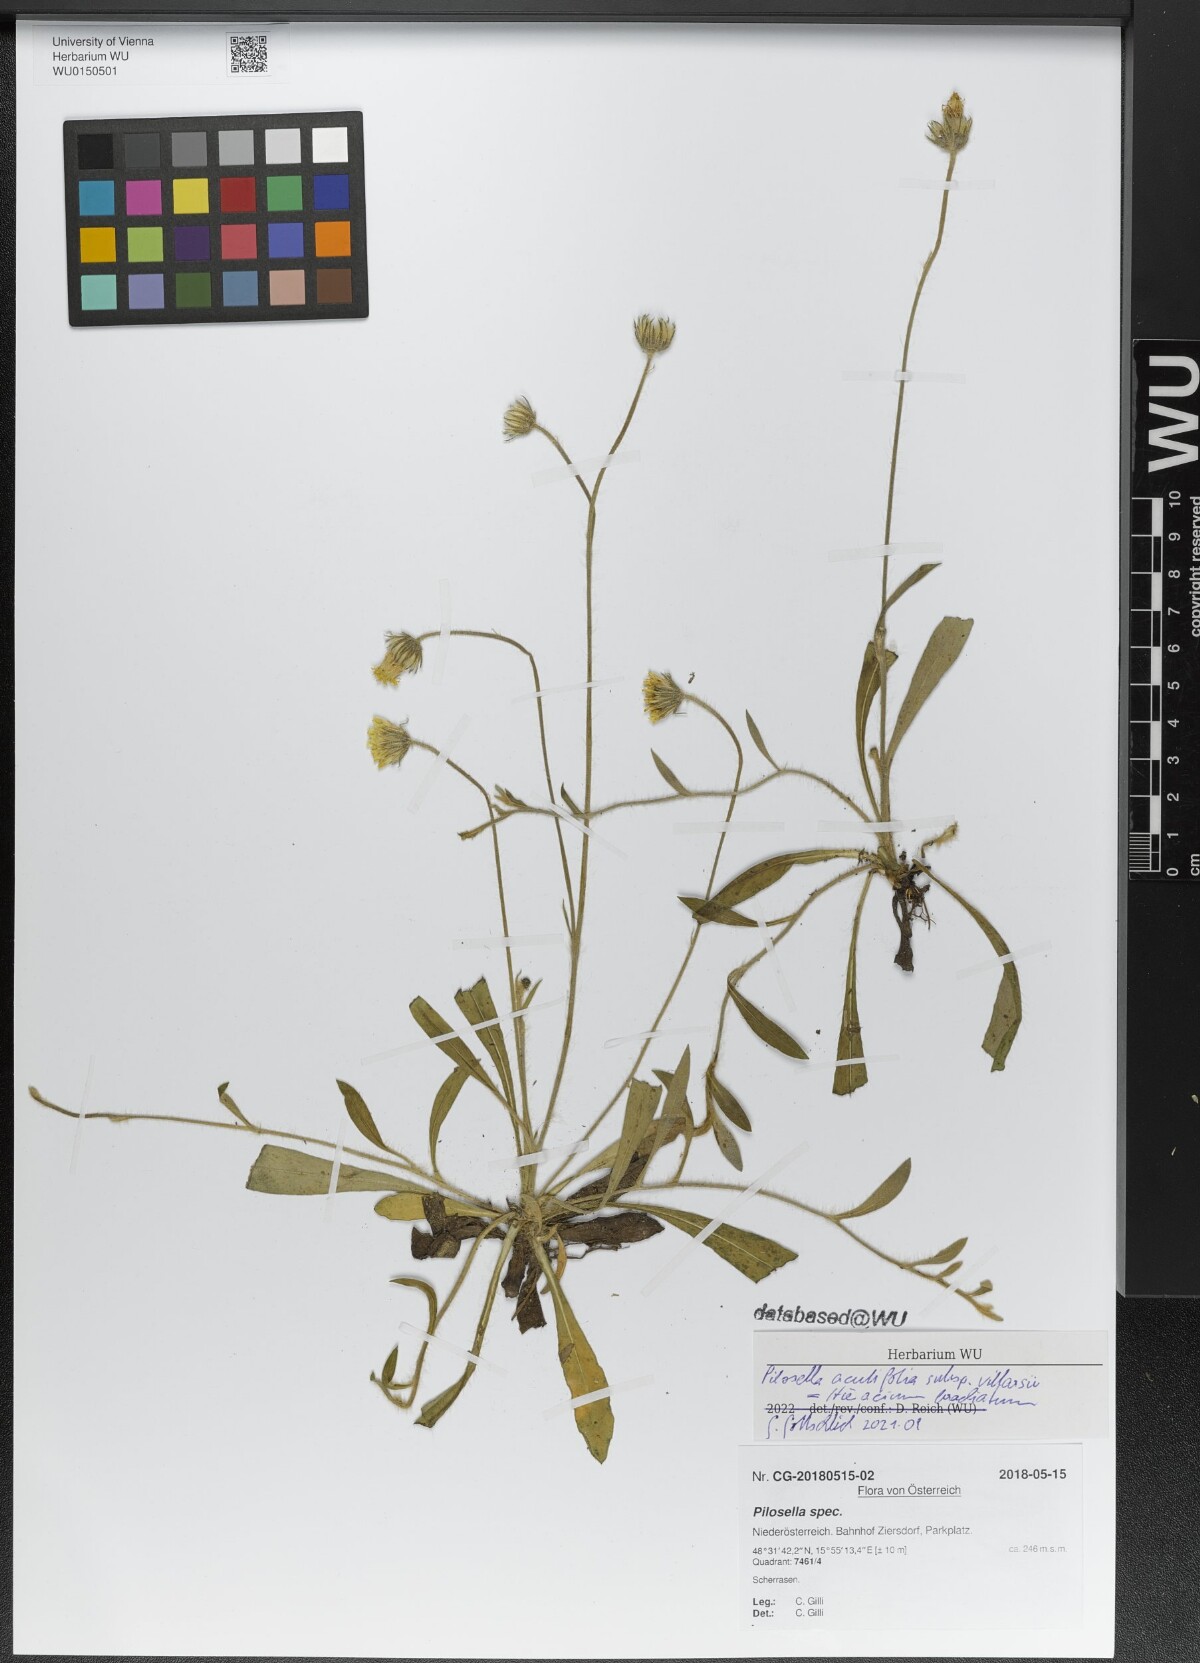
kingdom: Plantae
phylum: Tracheophyta
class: Magnoliopsida
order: Asterales
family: Asteraceae
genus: Pilosella
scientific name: Pilosella acutifolia
